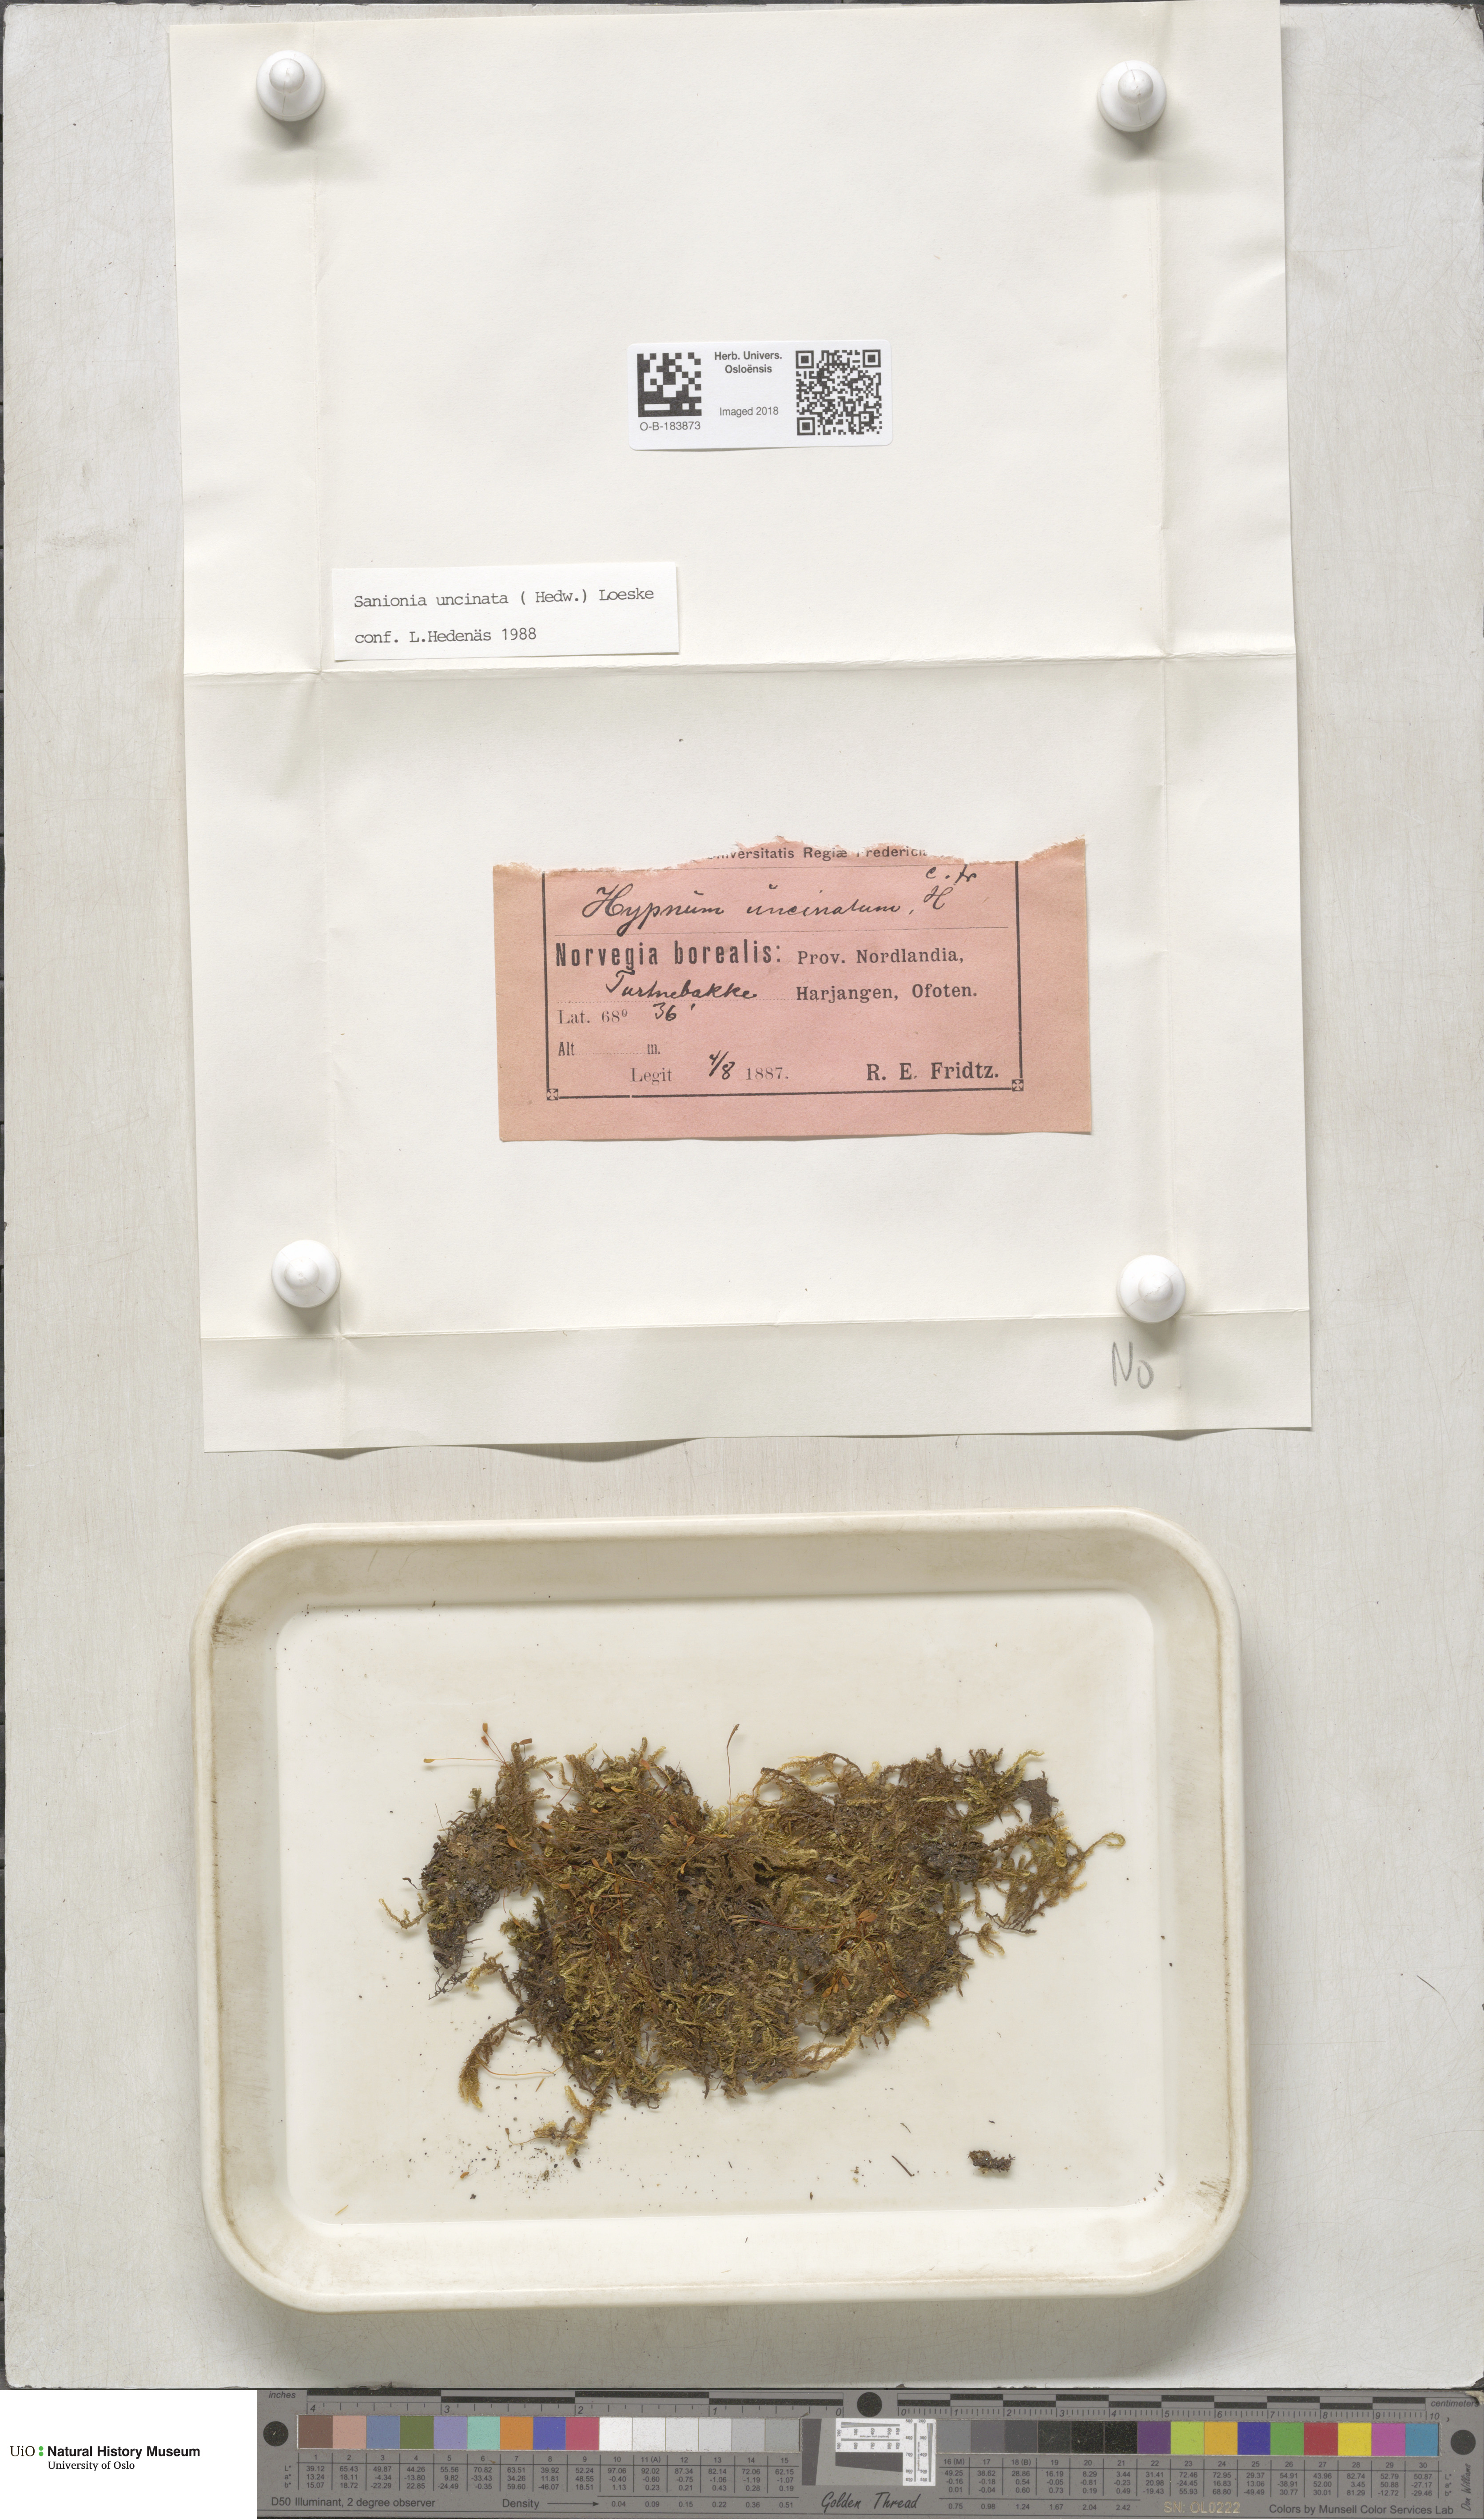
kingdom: Plantae
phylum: Bryophyta
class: Bryopsida
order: Hypnales
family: Scorpidiaceae
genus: Sanionia
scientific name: Sanionia uncinata
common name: Sickle moss
